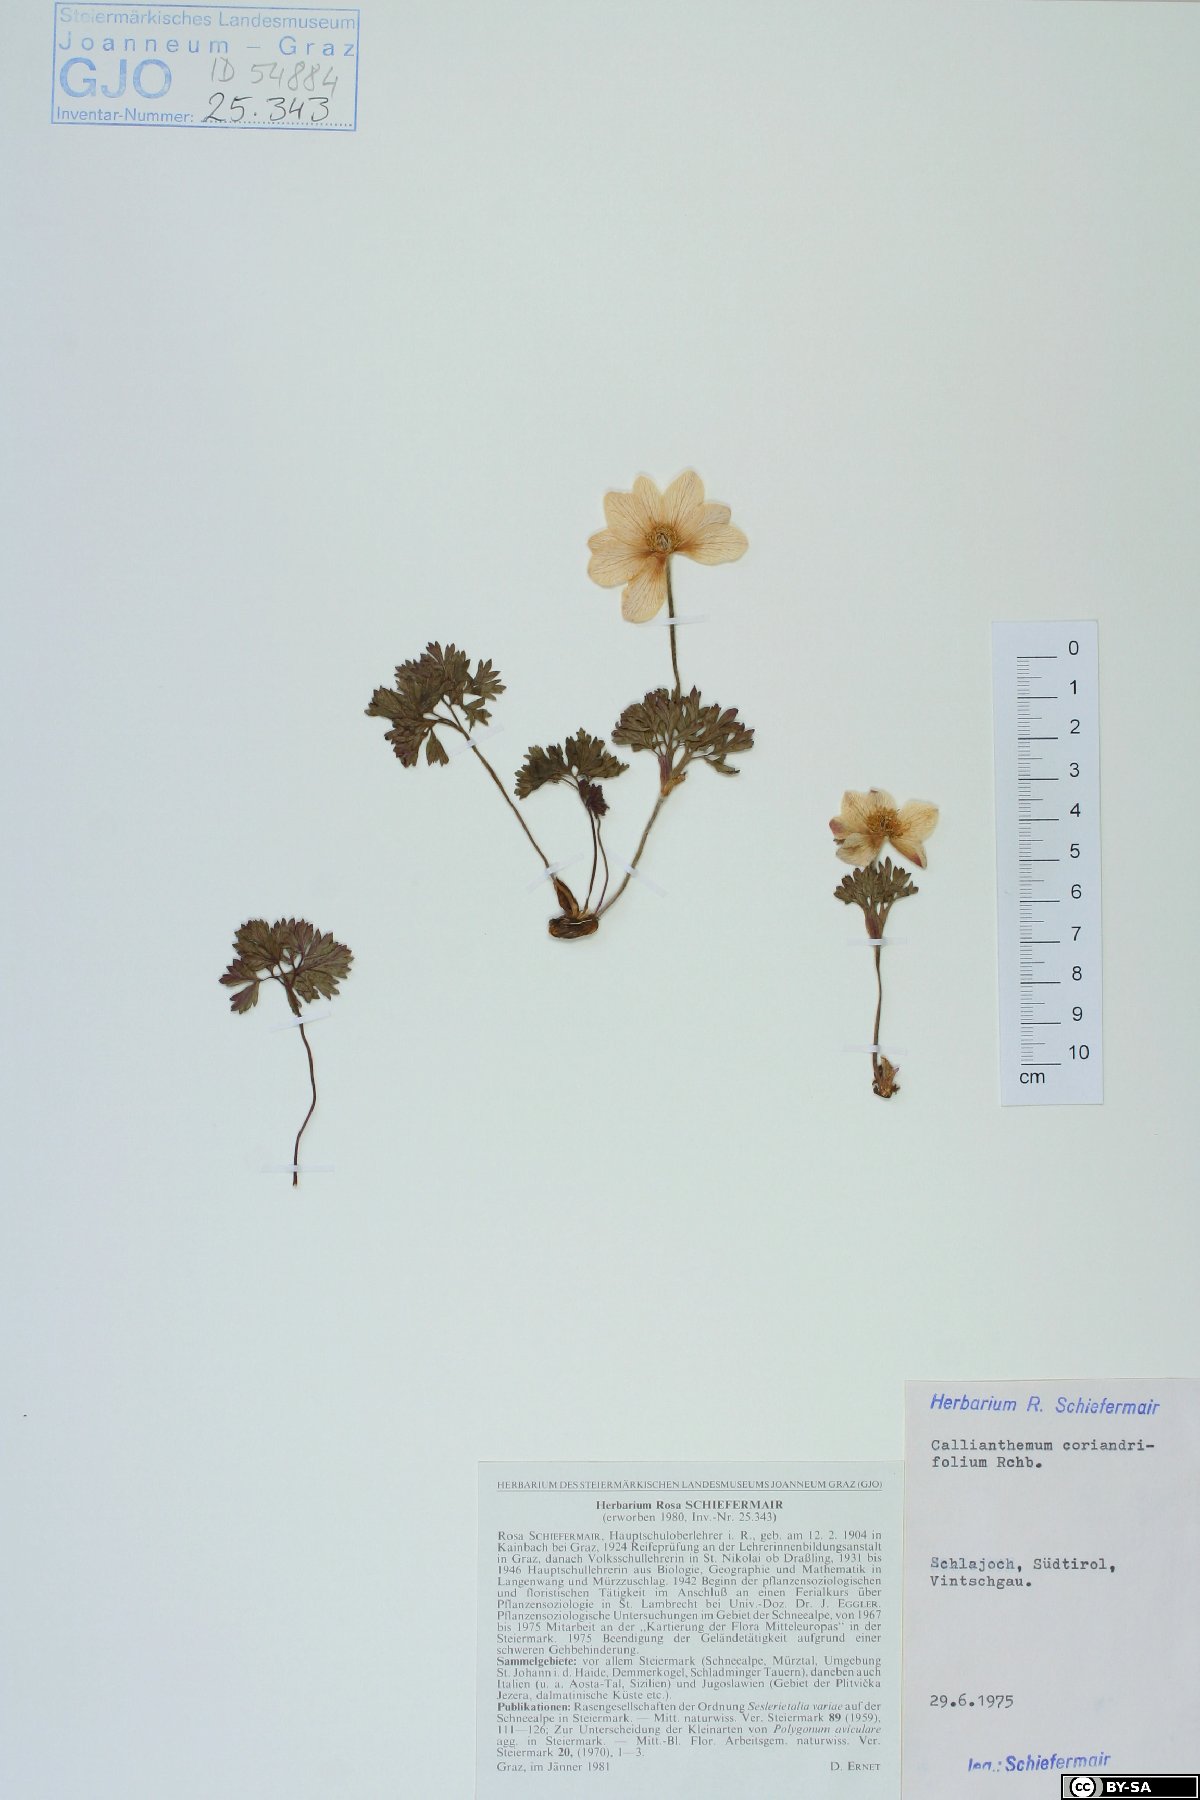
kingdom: Plantae
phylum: Tracheophyta
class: Magnoliopsida
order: Ranunculales
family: Ranunculaceae
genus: Callianthemum
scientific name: Callianthemum coriandrifolium
